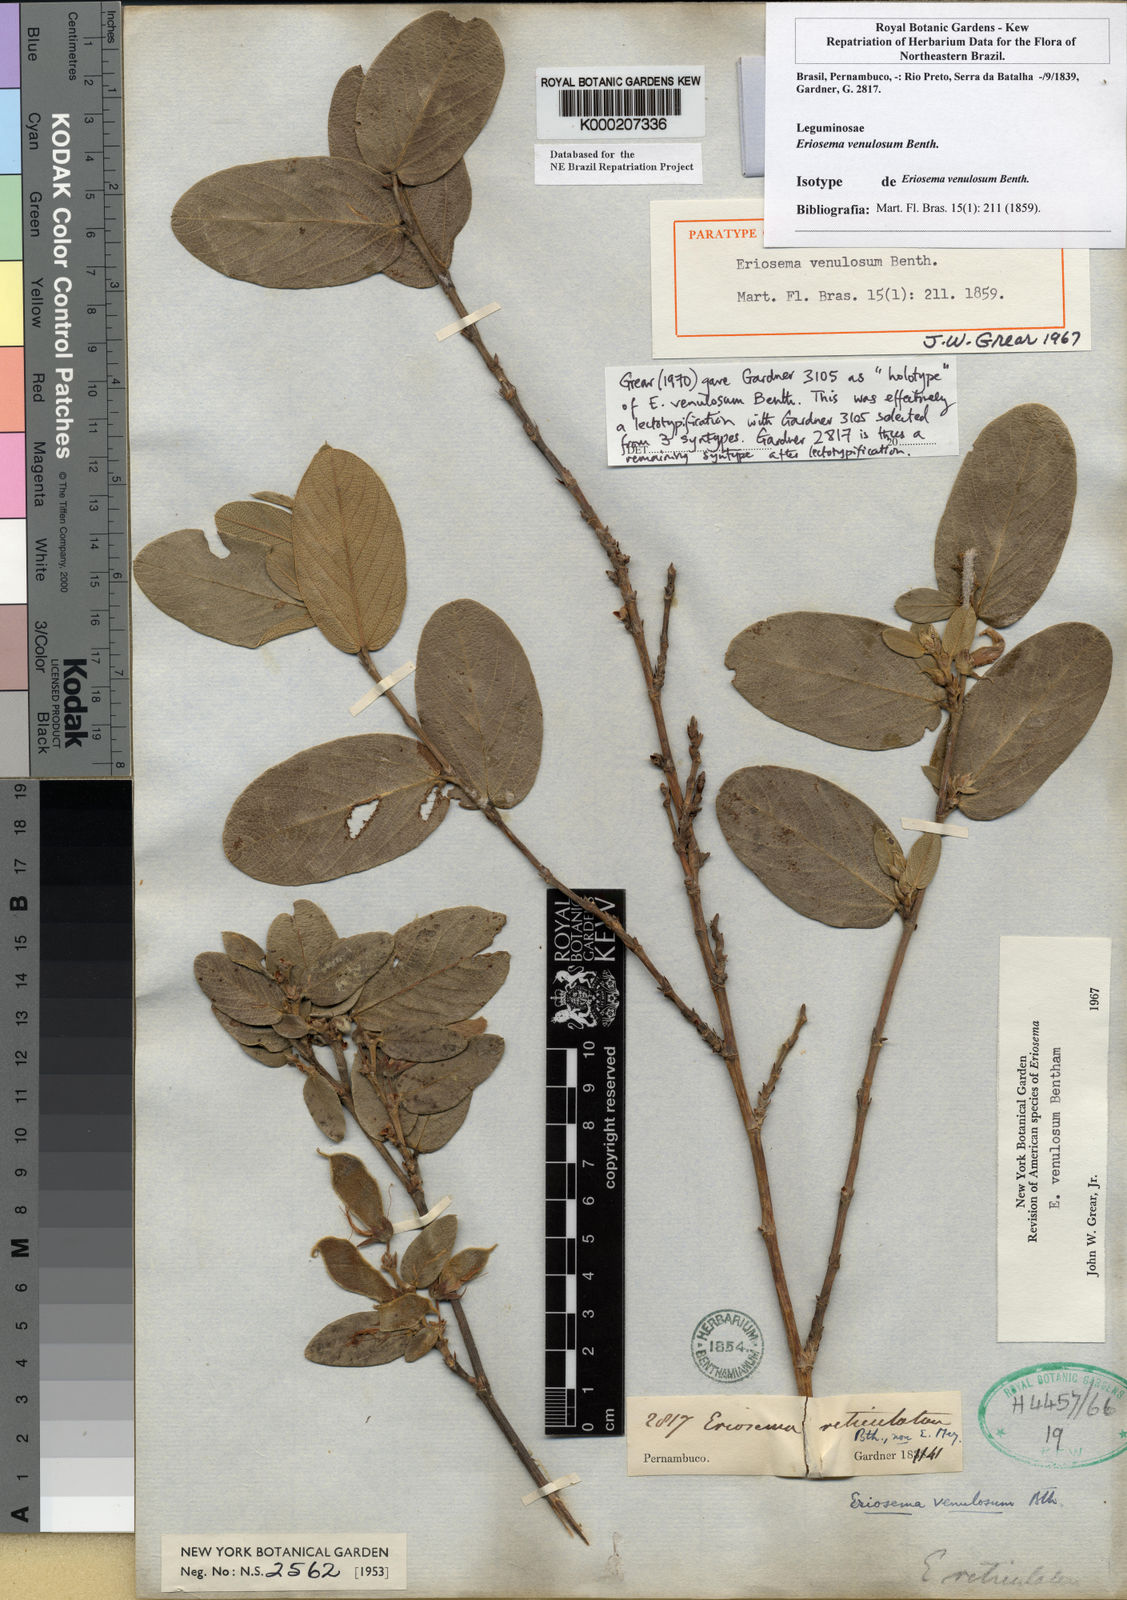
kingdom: Plantae
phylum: Tracheophyta
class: Magnoliopsida
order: Fabales
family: Fabaceae
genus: Eriosema
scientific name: Eriosema venulosum
